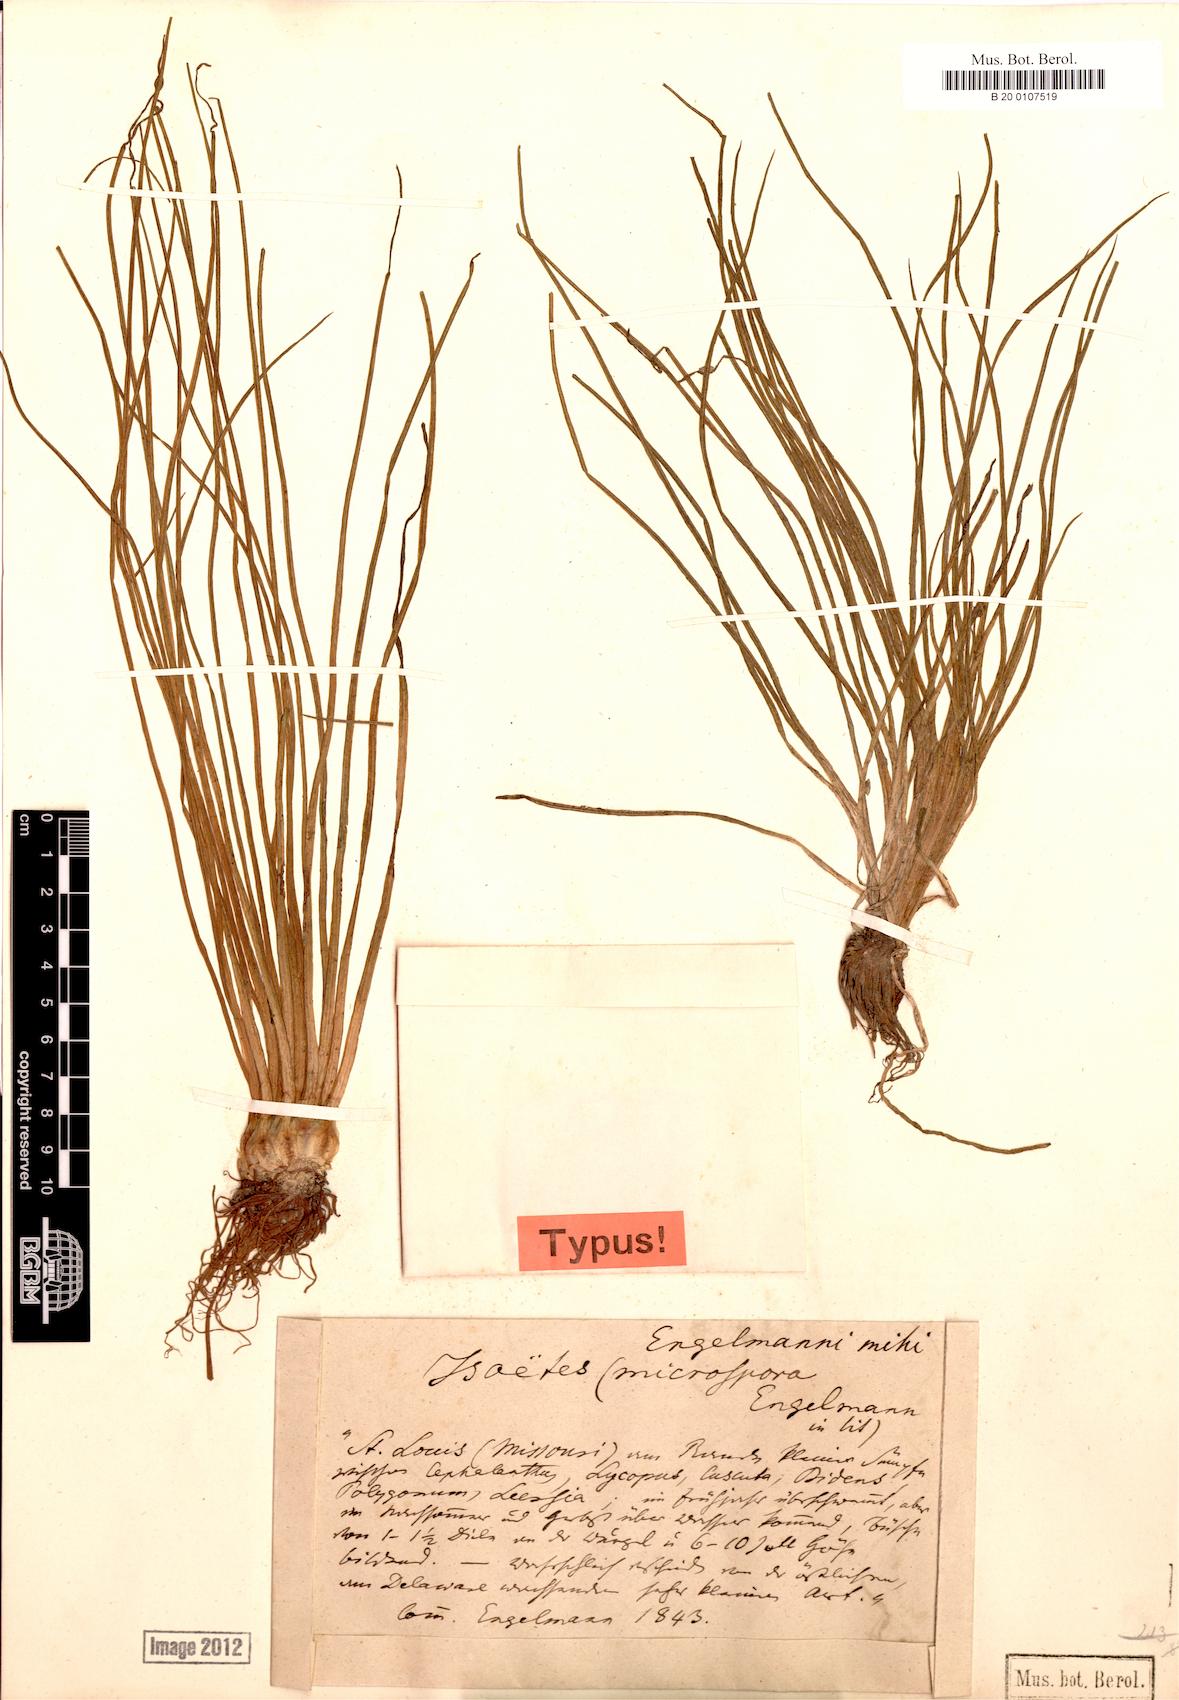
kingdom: Plantae
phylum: Tracheophyta
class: Lycopodiopsida
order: Isoetales
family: Isoetaceae
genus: Isoetes
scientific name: Isoetes engelmannii
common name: Engelmann's quillwort
